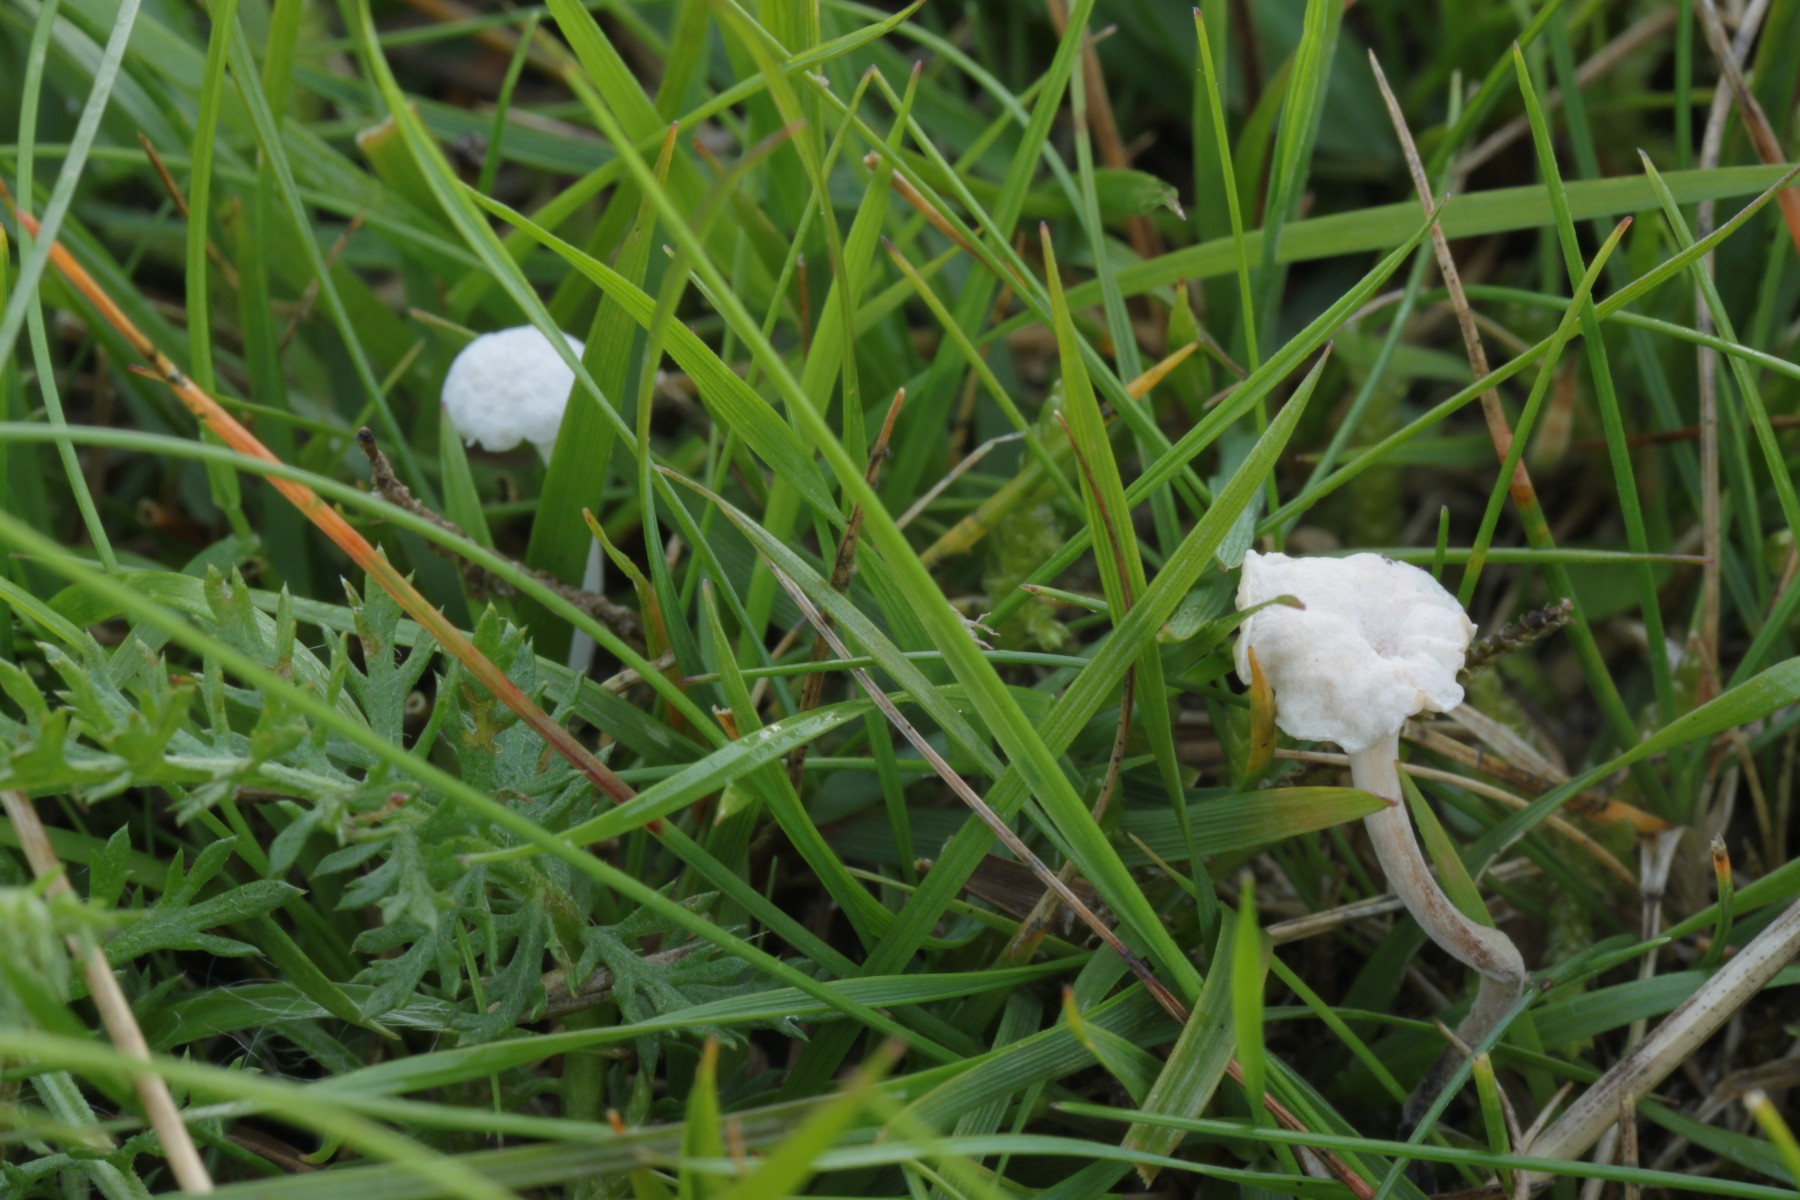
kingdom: Fungi
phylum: Basidiomycota
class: Agaricomycetes
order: Agaricales
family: Omphalotaceae
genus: Marasmiellus
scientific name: Marasmiellus tricolor
